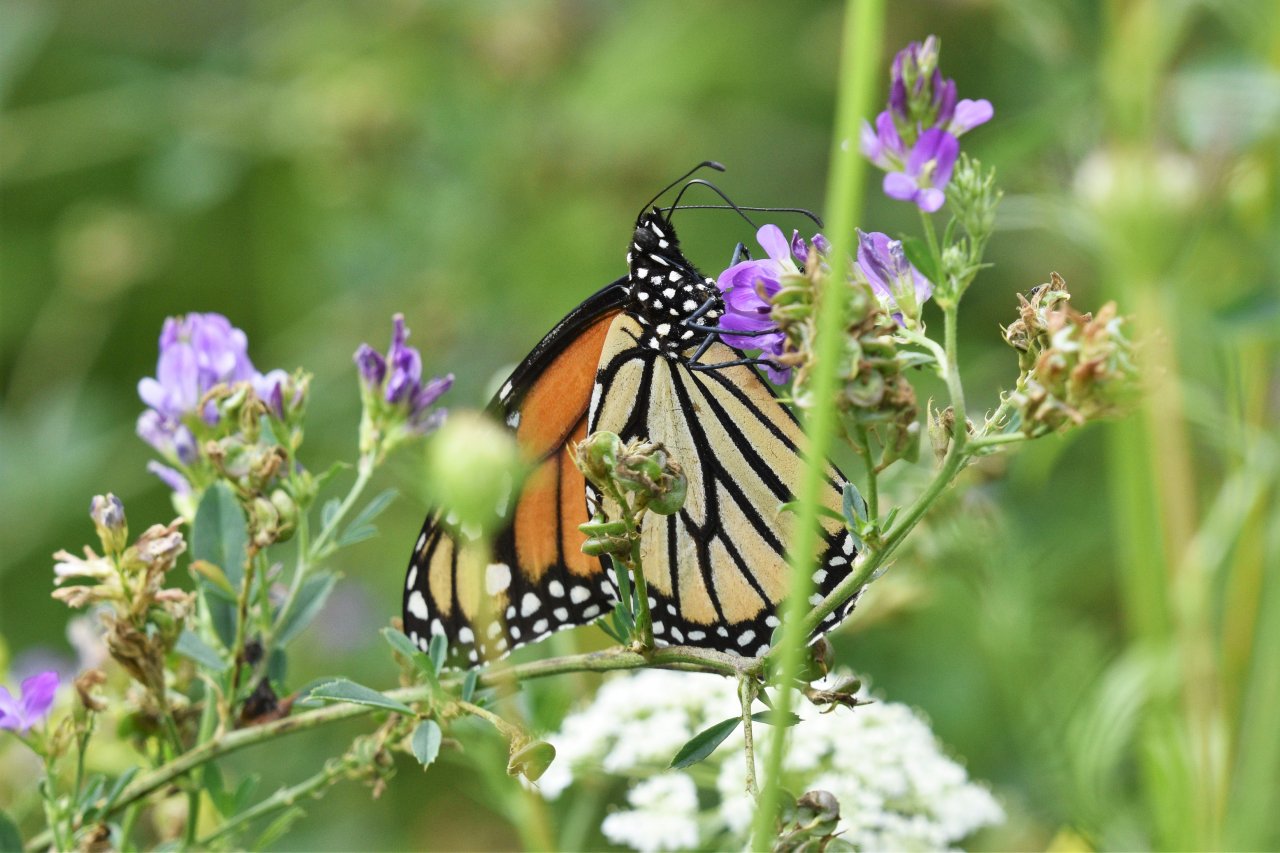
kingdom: Animalia
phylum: Arthropoda
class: Insecta
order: Lepidoptera
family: Nymphalidae
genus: Danaus
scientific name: Danaus plexippus
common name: Monarch
